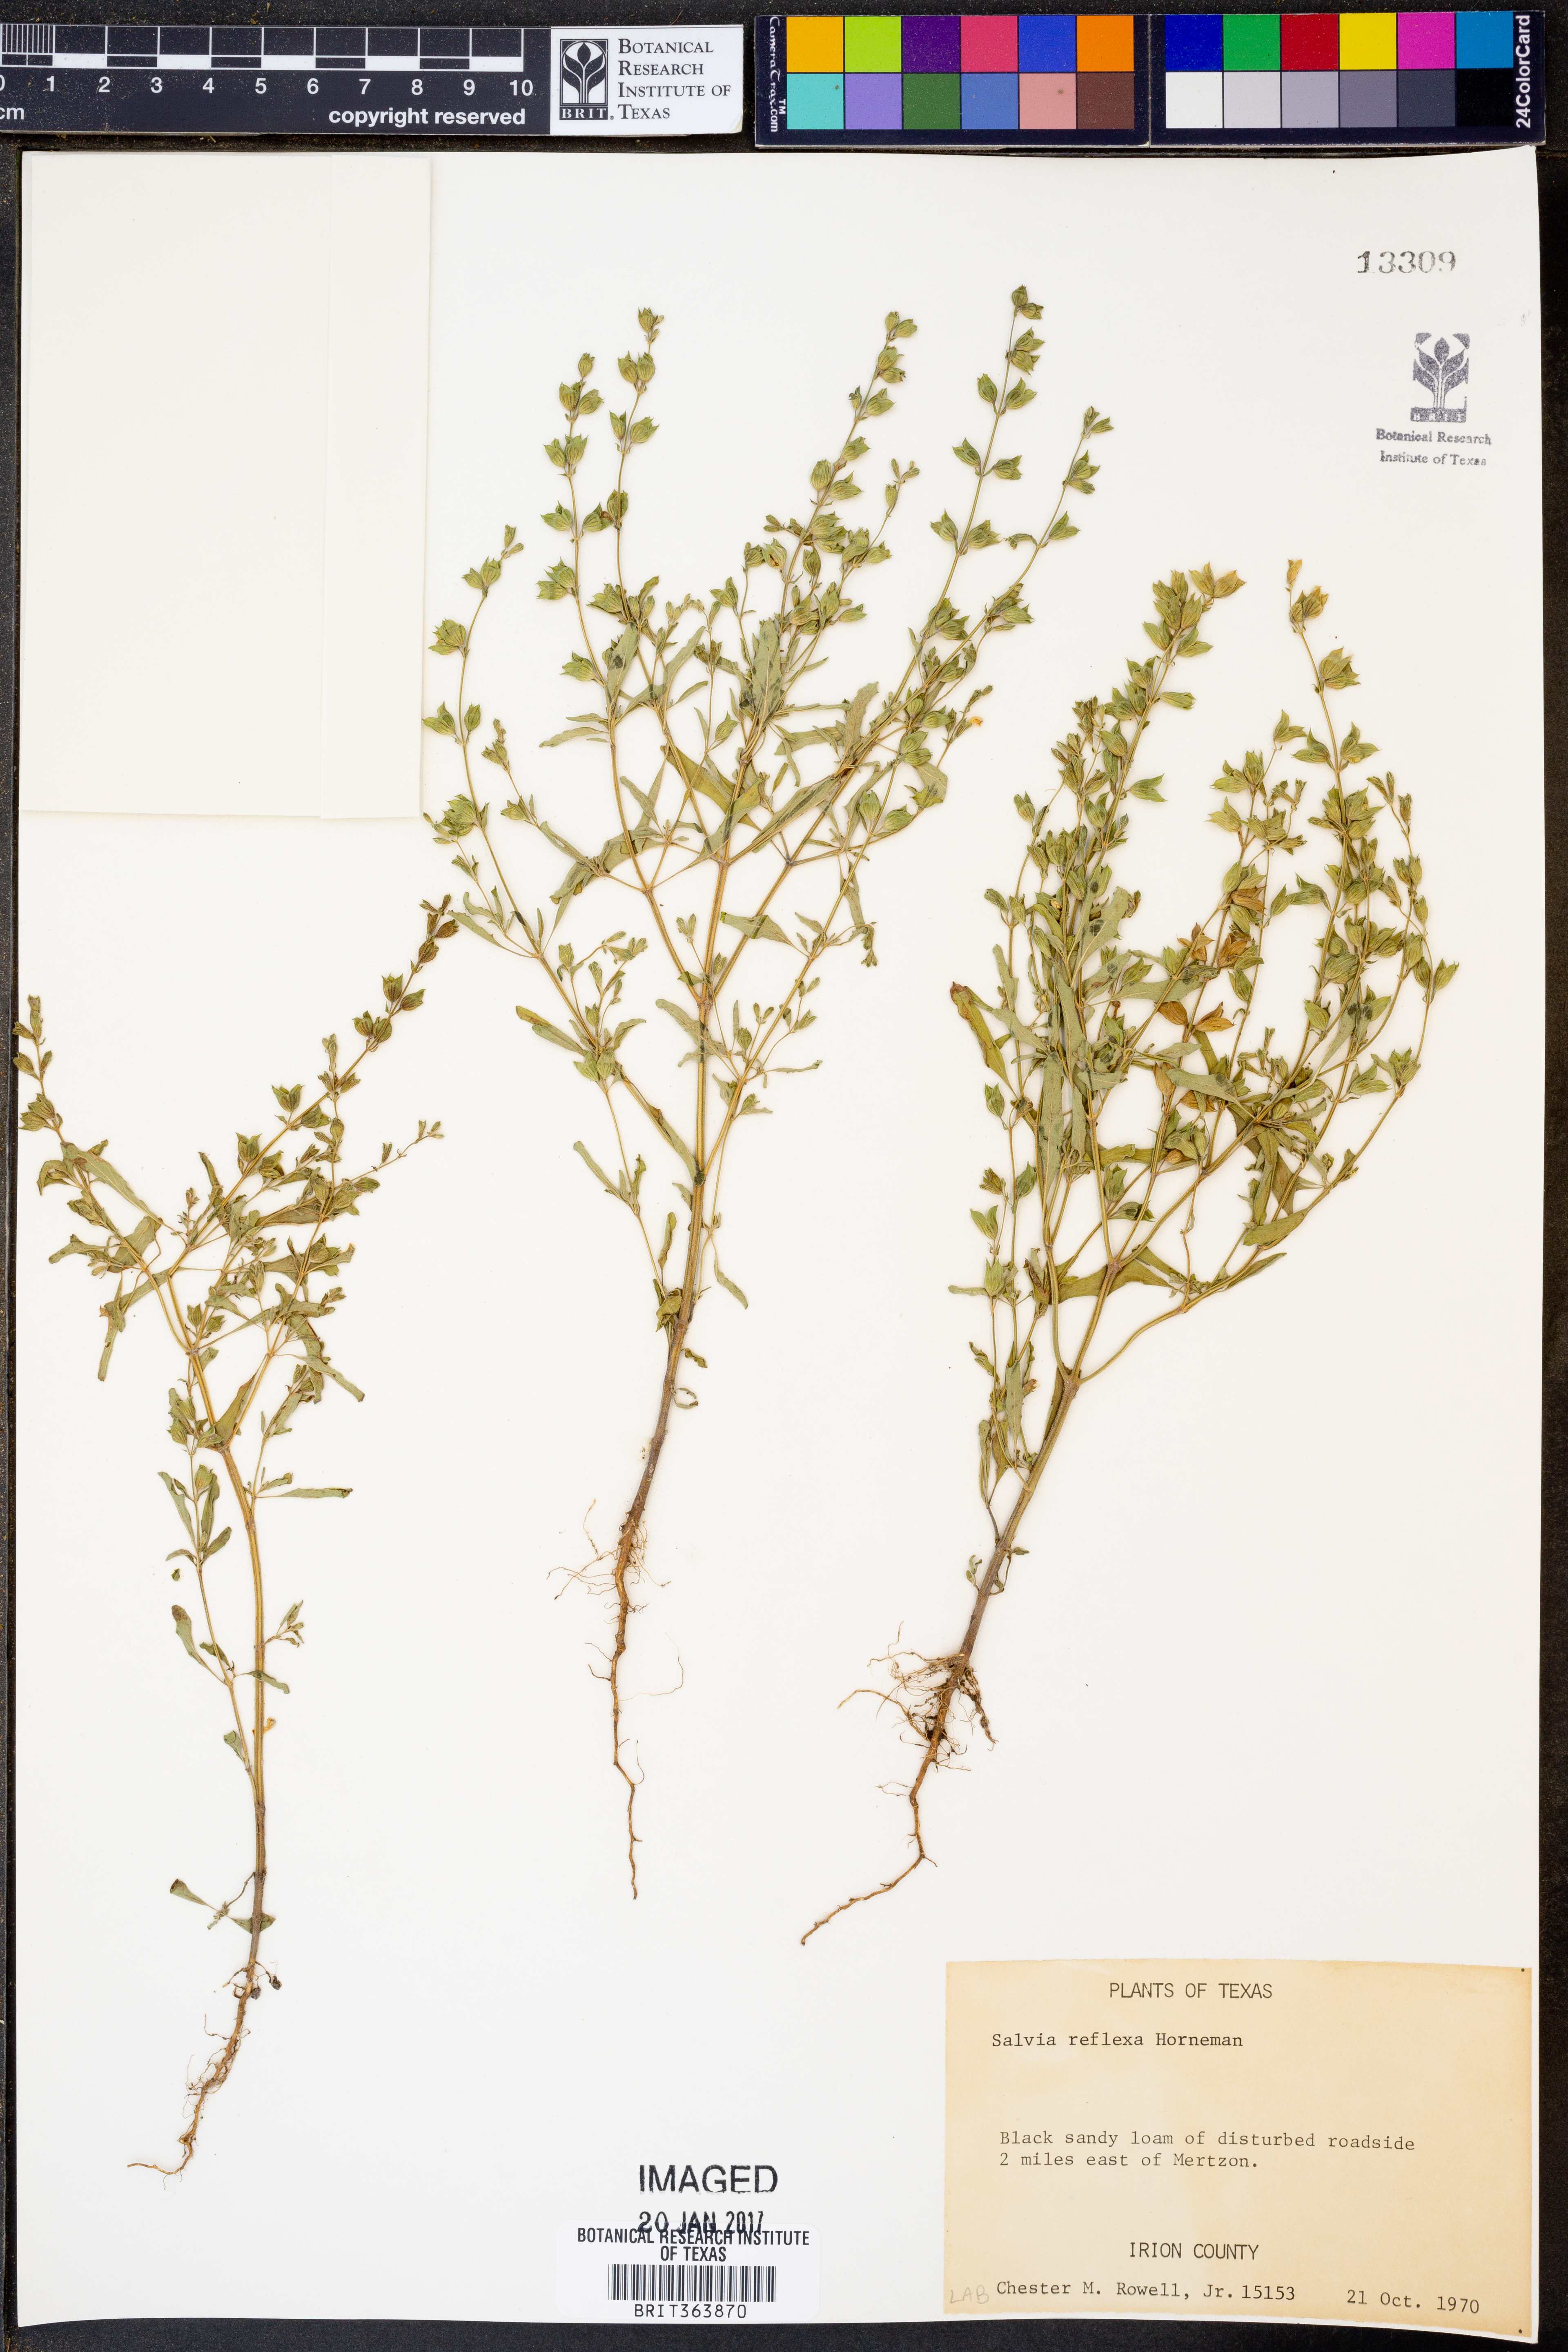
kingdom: Plantae
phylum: Tracheophyta
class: Magnoliopsida
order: Lamiales
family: Lamiaceae
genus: Salvia
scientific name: Salvia reflexa
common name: Mintweed
